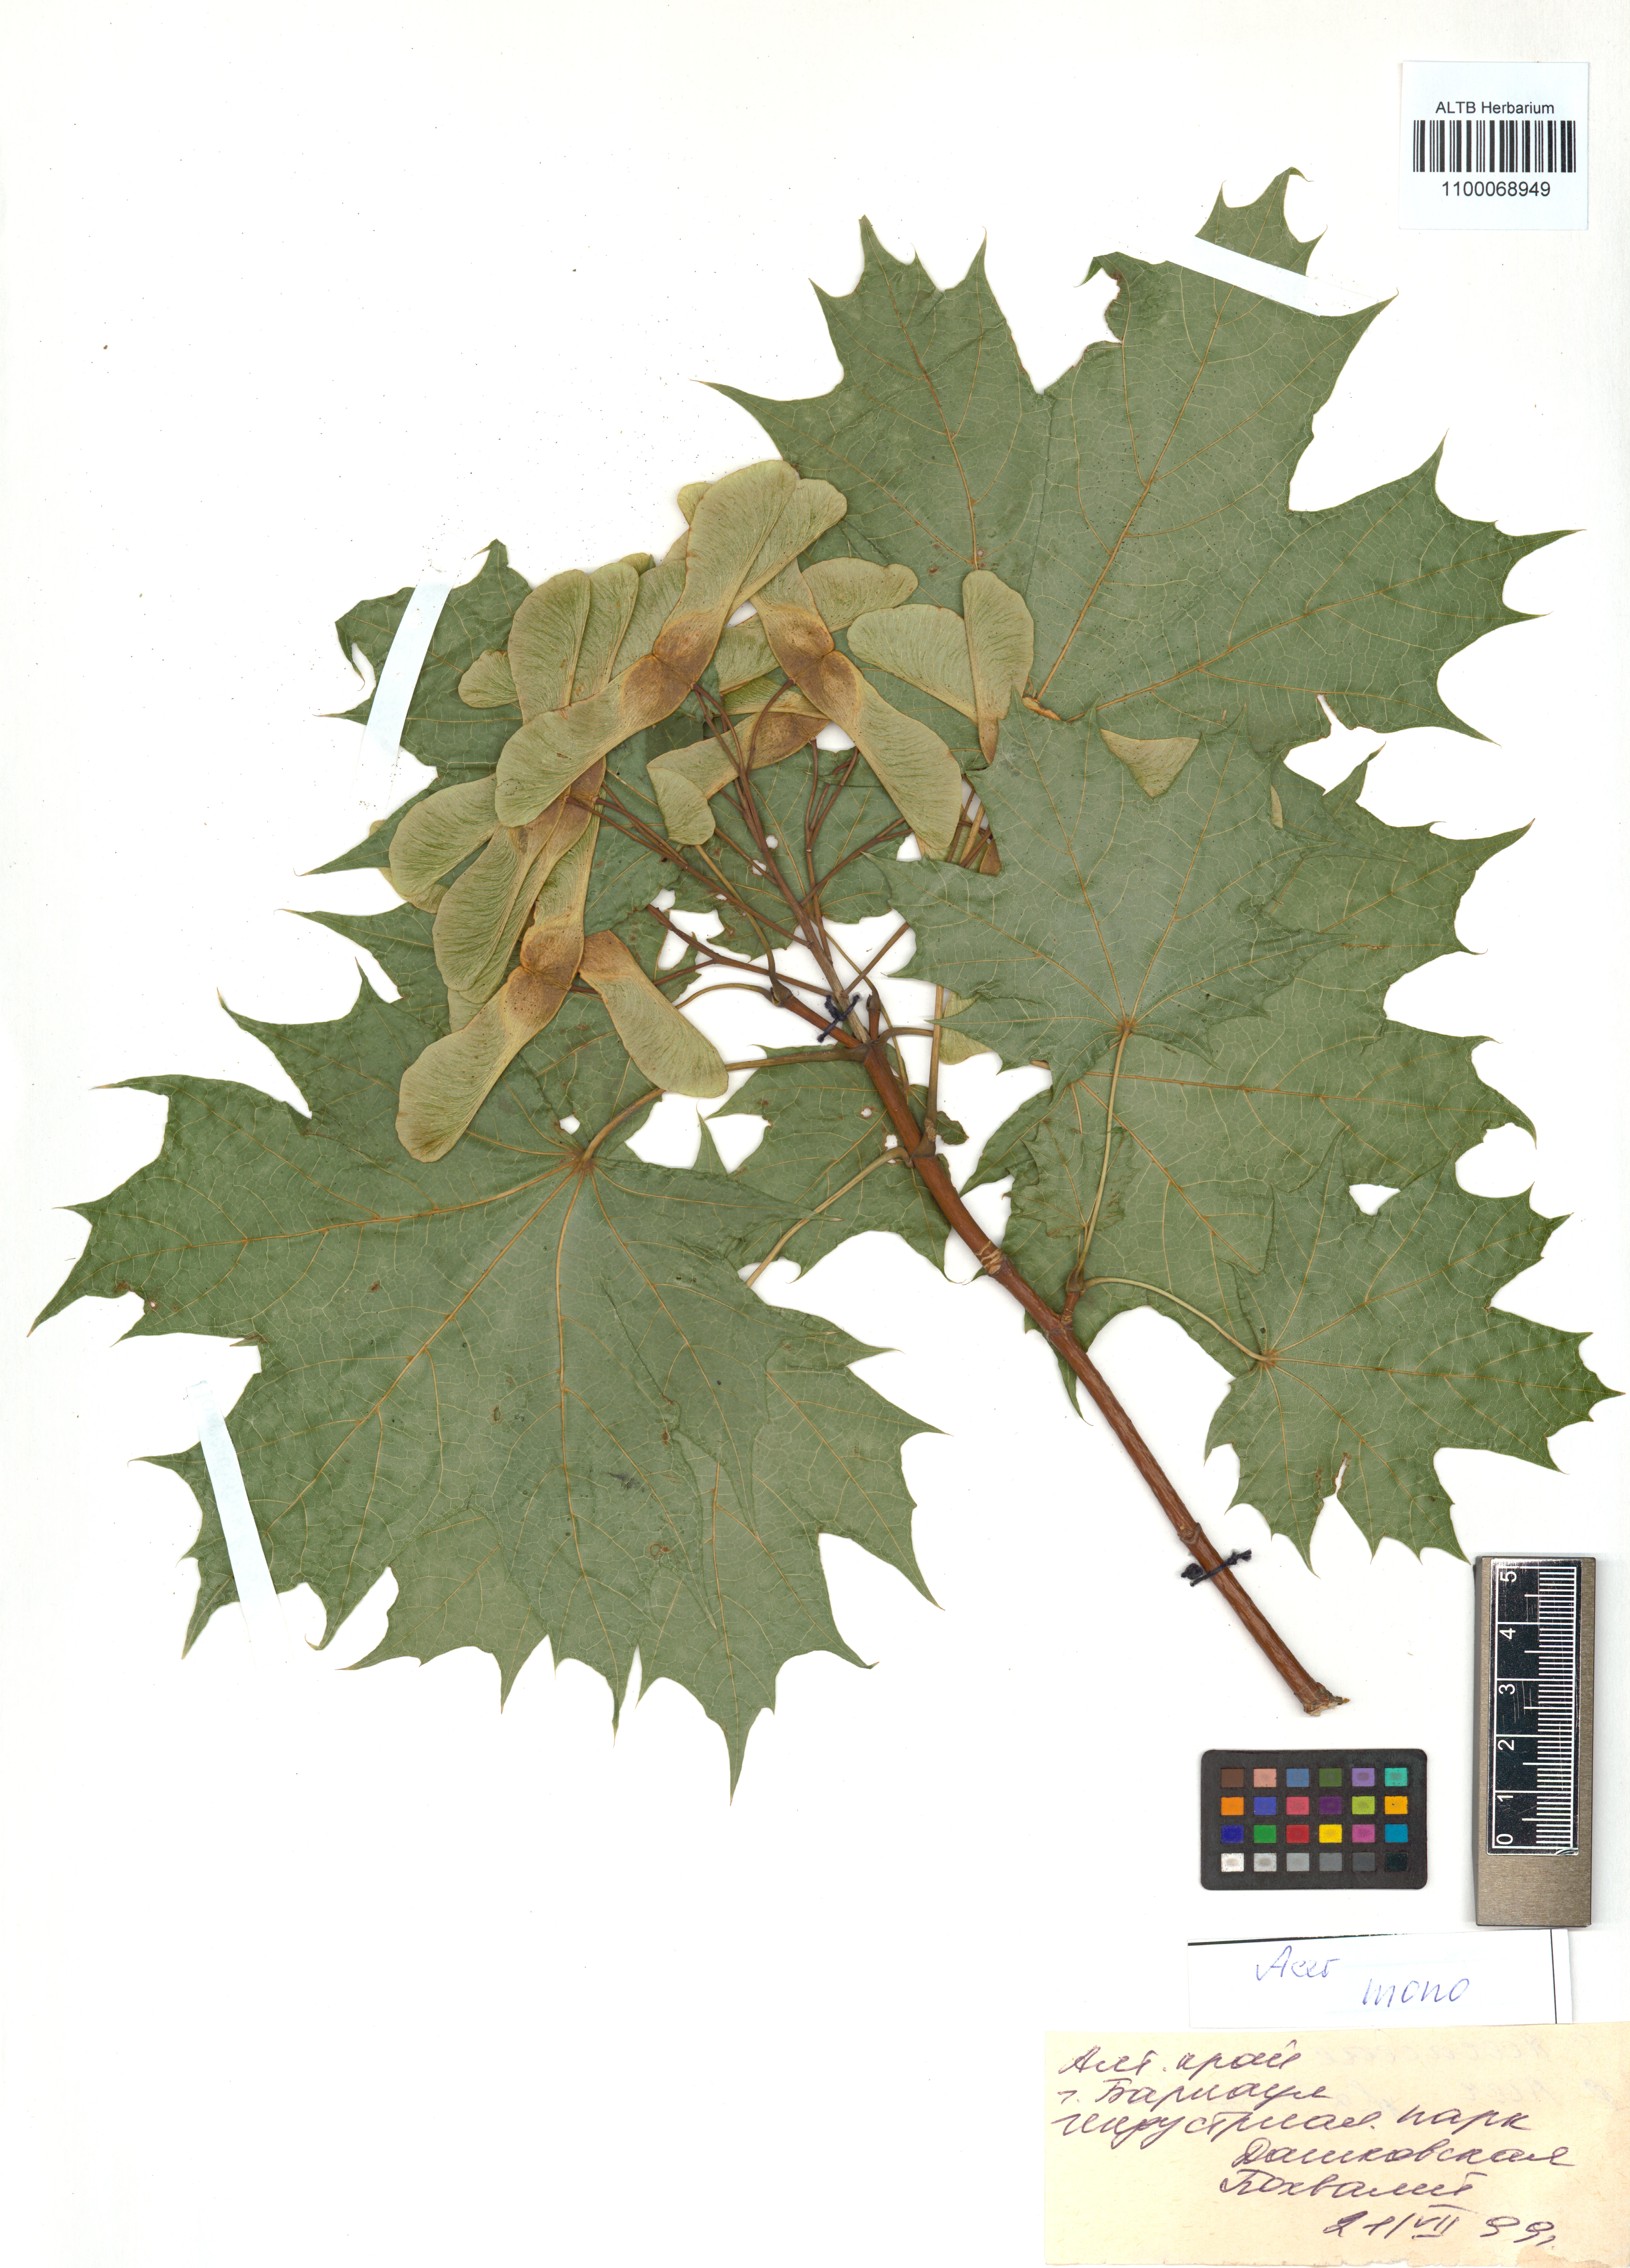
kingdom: Plantae
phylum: Tracheophyta
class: Magnoliopsida
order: Sapindales
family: Sapindaceae
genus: Acer
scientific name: Acer pictum
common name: The painted maple
